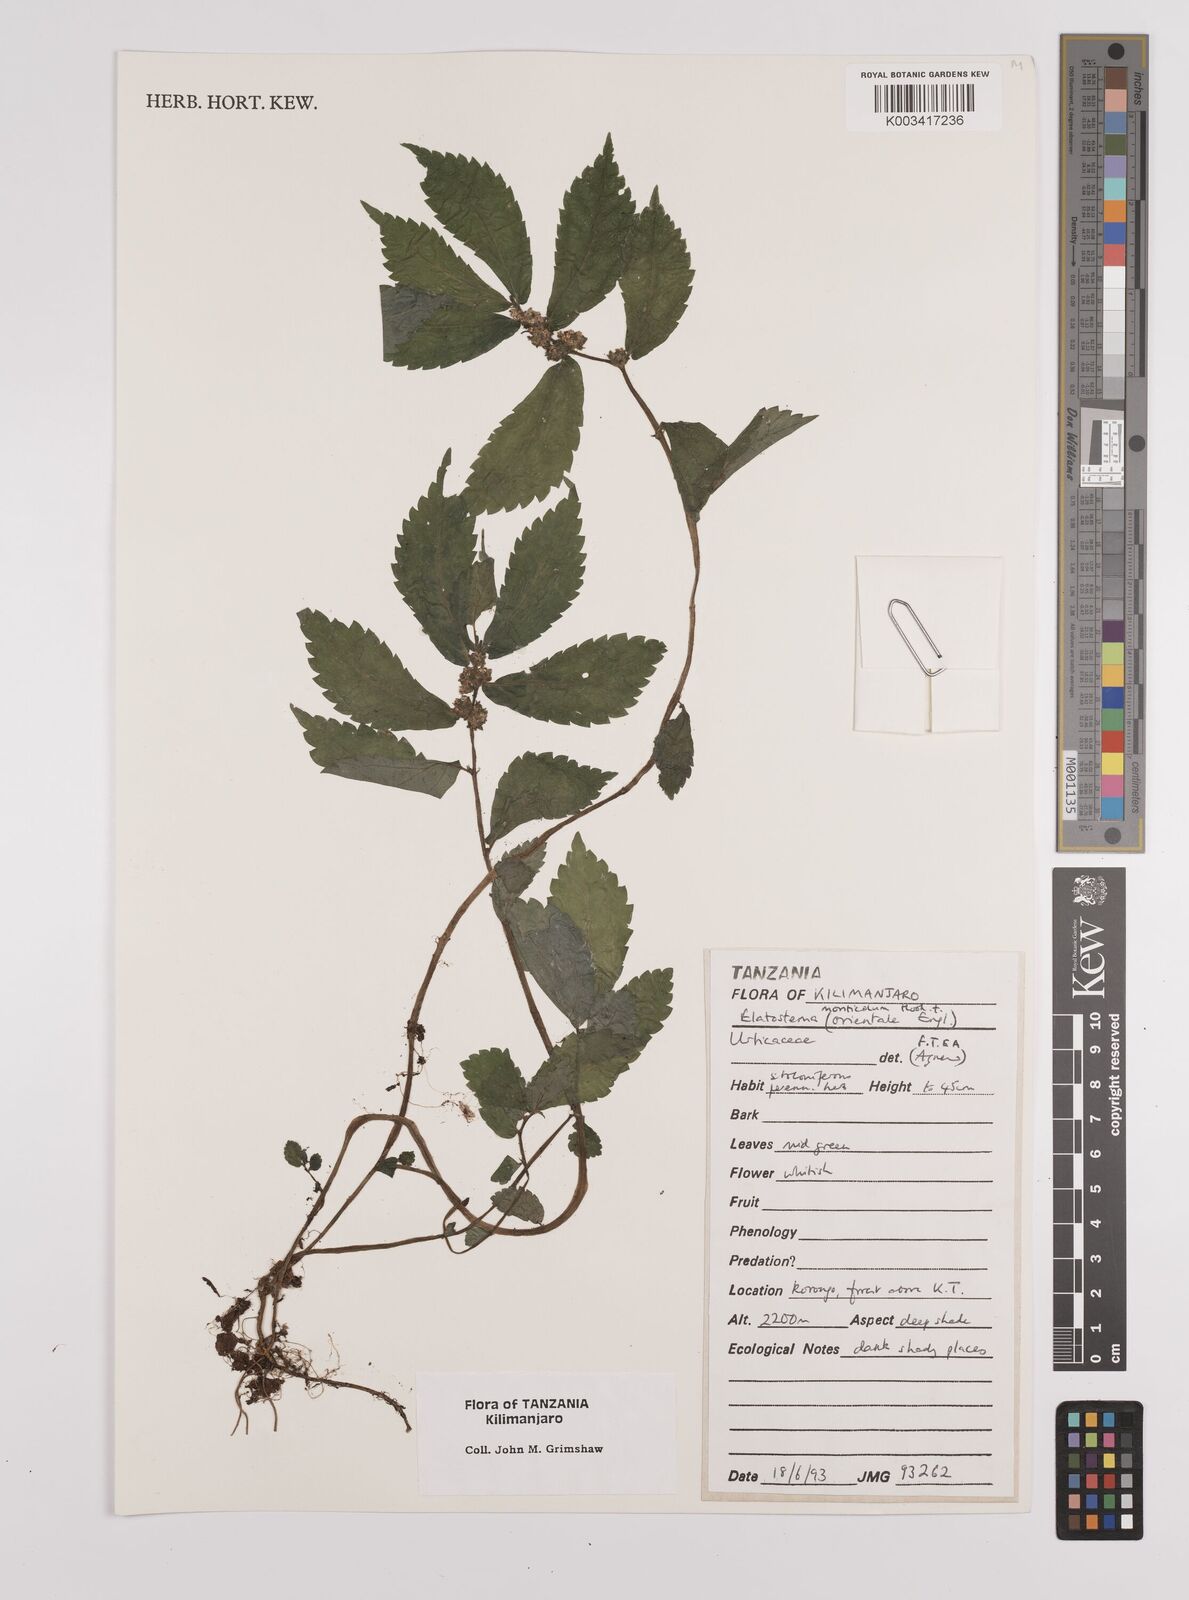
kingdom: Plantae
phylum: Tracheophyta
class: Magnoliopsida
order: Rosales
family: Urticaceae
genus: Elatostema
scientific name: Elatostema monticola
